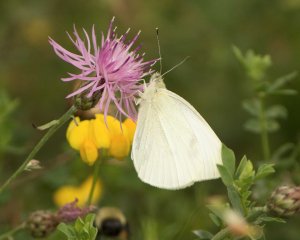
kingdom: Animalia
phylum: Arthropoda
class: Insecta
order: Lepidoptera
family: Pieridae
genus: Pieris
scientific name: Pieris rapae
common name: Cabbage White
